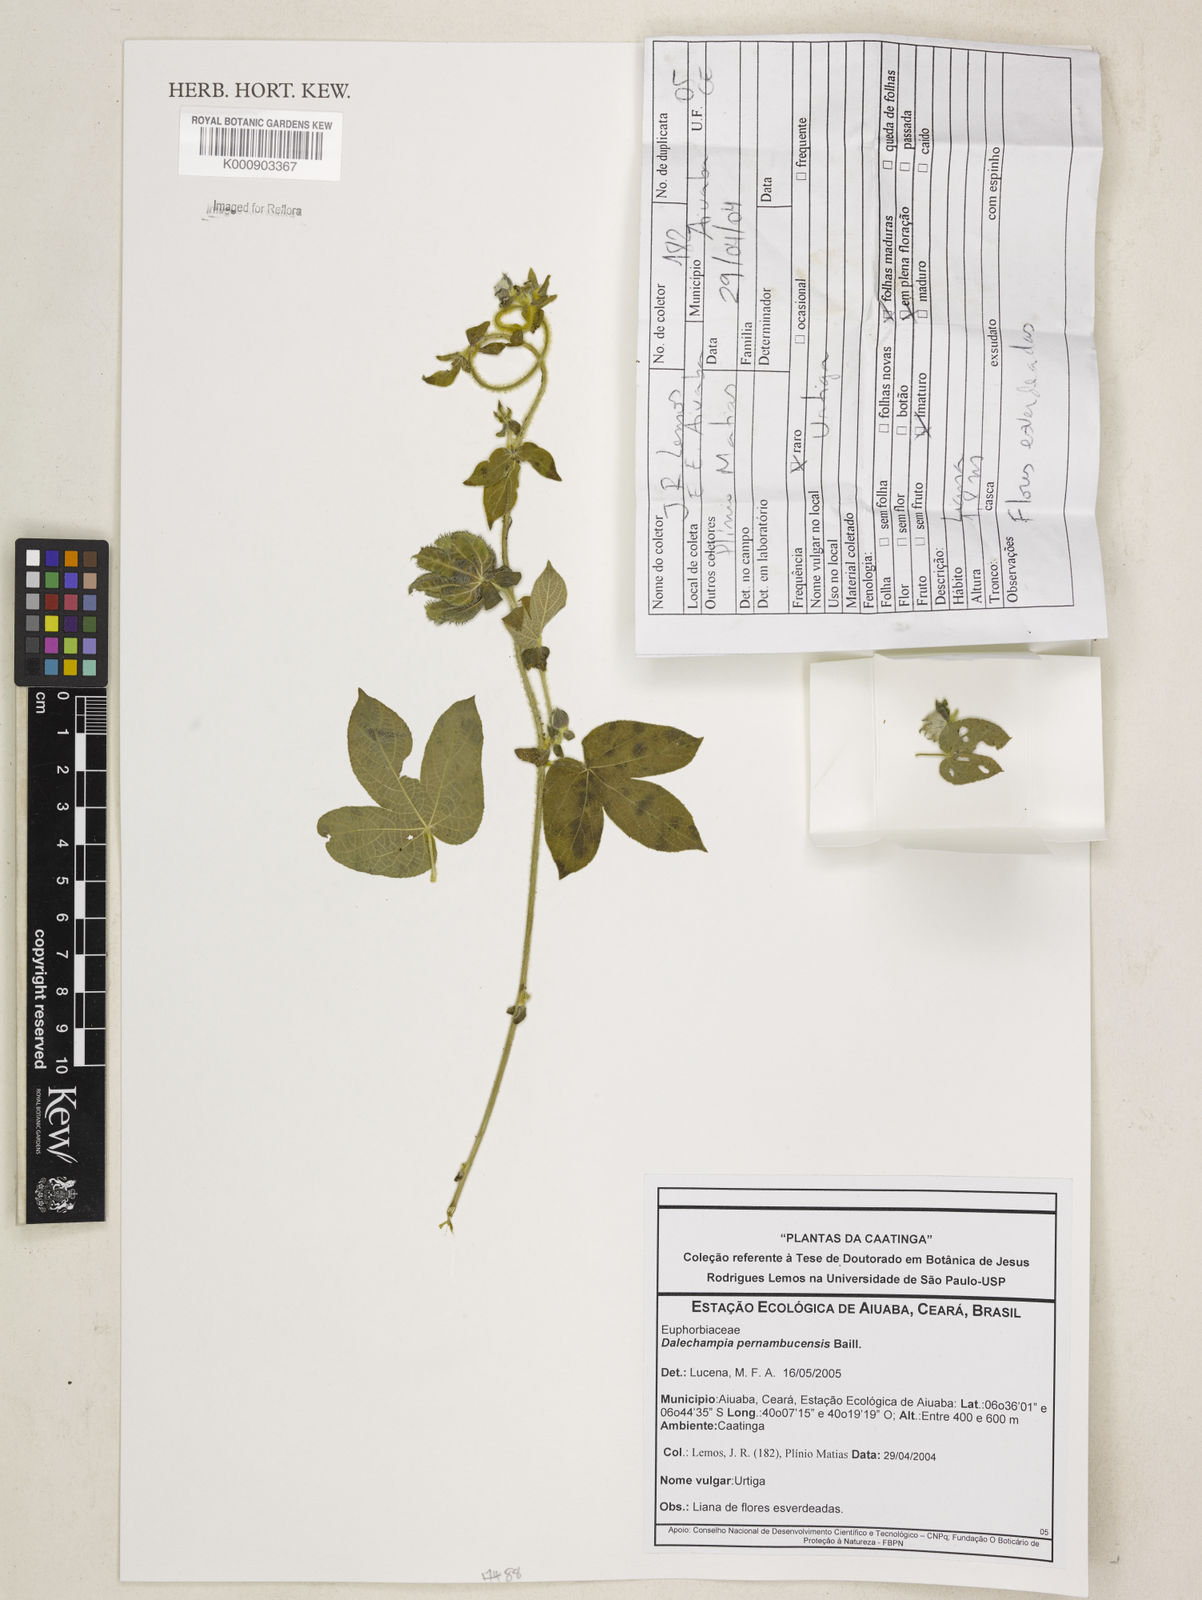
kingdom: Plantae
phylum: Tracheophyta
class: Magnoliopsida
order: Malpighiales
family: Euphorbiaceae
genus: Dalechampia
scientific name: Dalechampia pernambucensis
